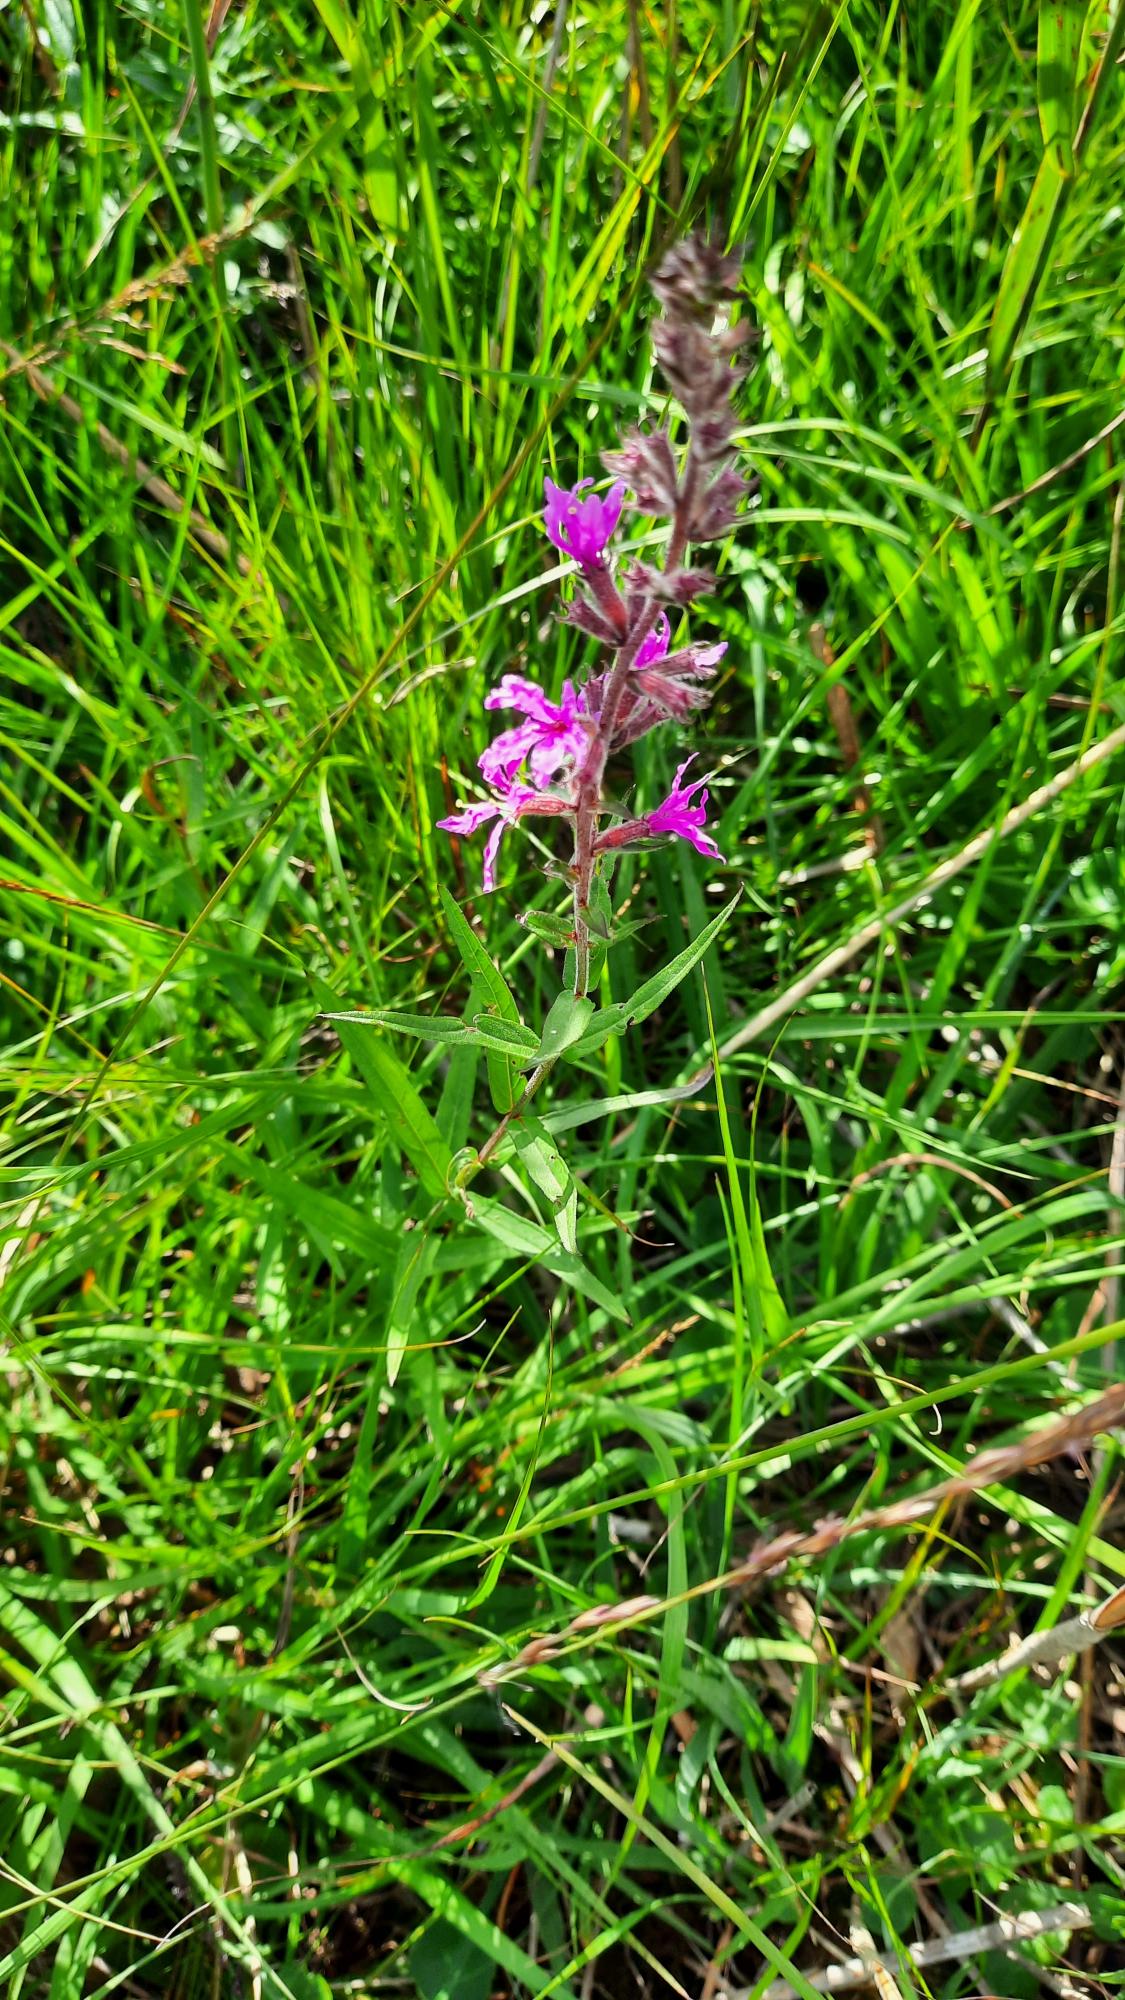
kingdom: Plantae
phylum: Tracheophyta
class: Magnoliopsida
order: Myrtales
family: Lythraceae
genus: Lythrum
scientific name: Lythrum salicaria
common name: Kattehale
